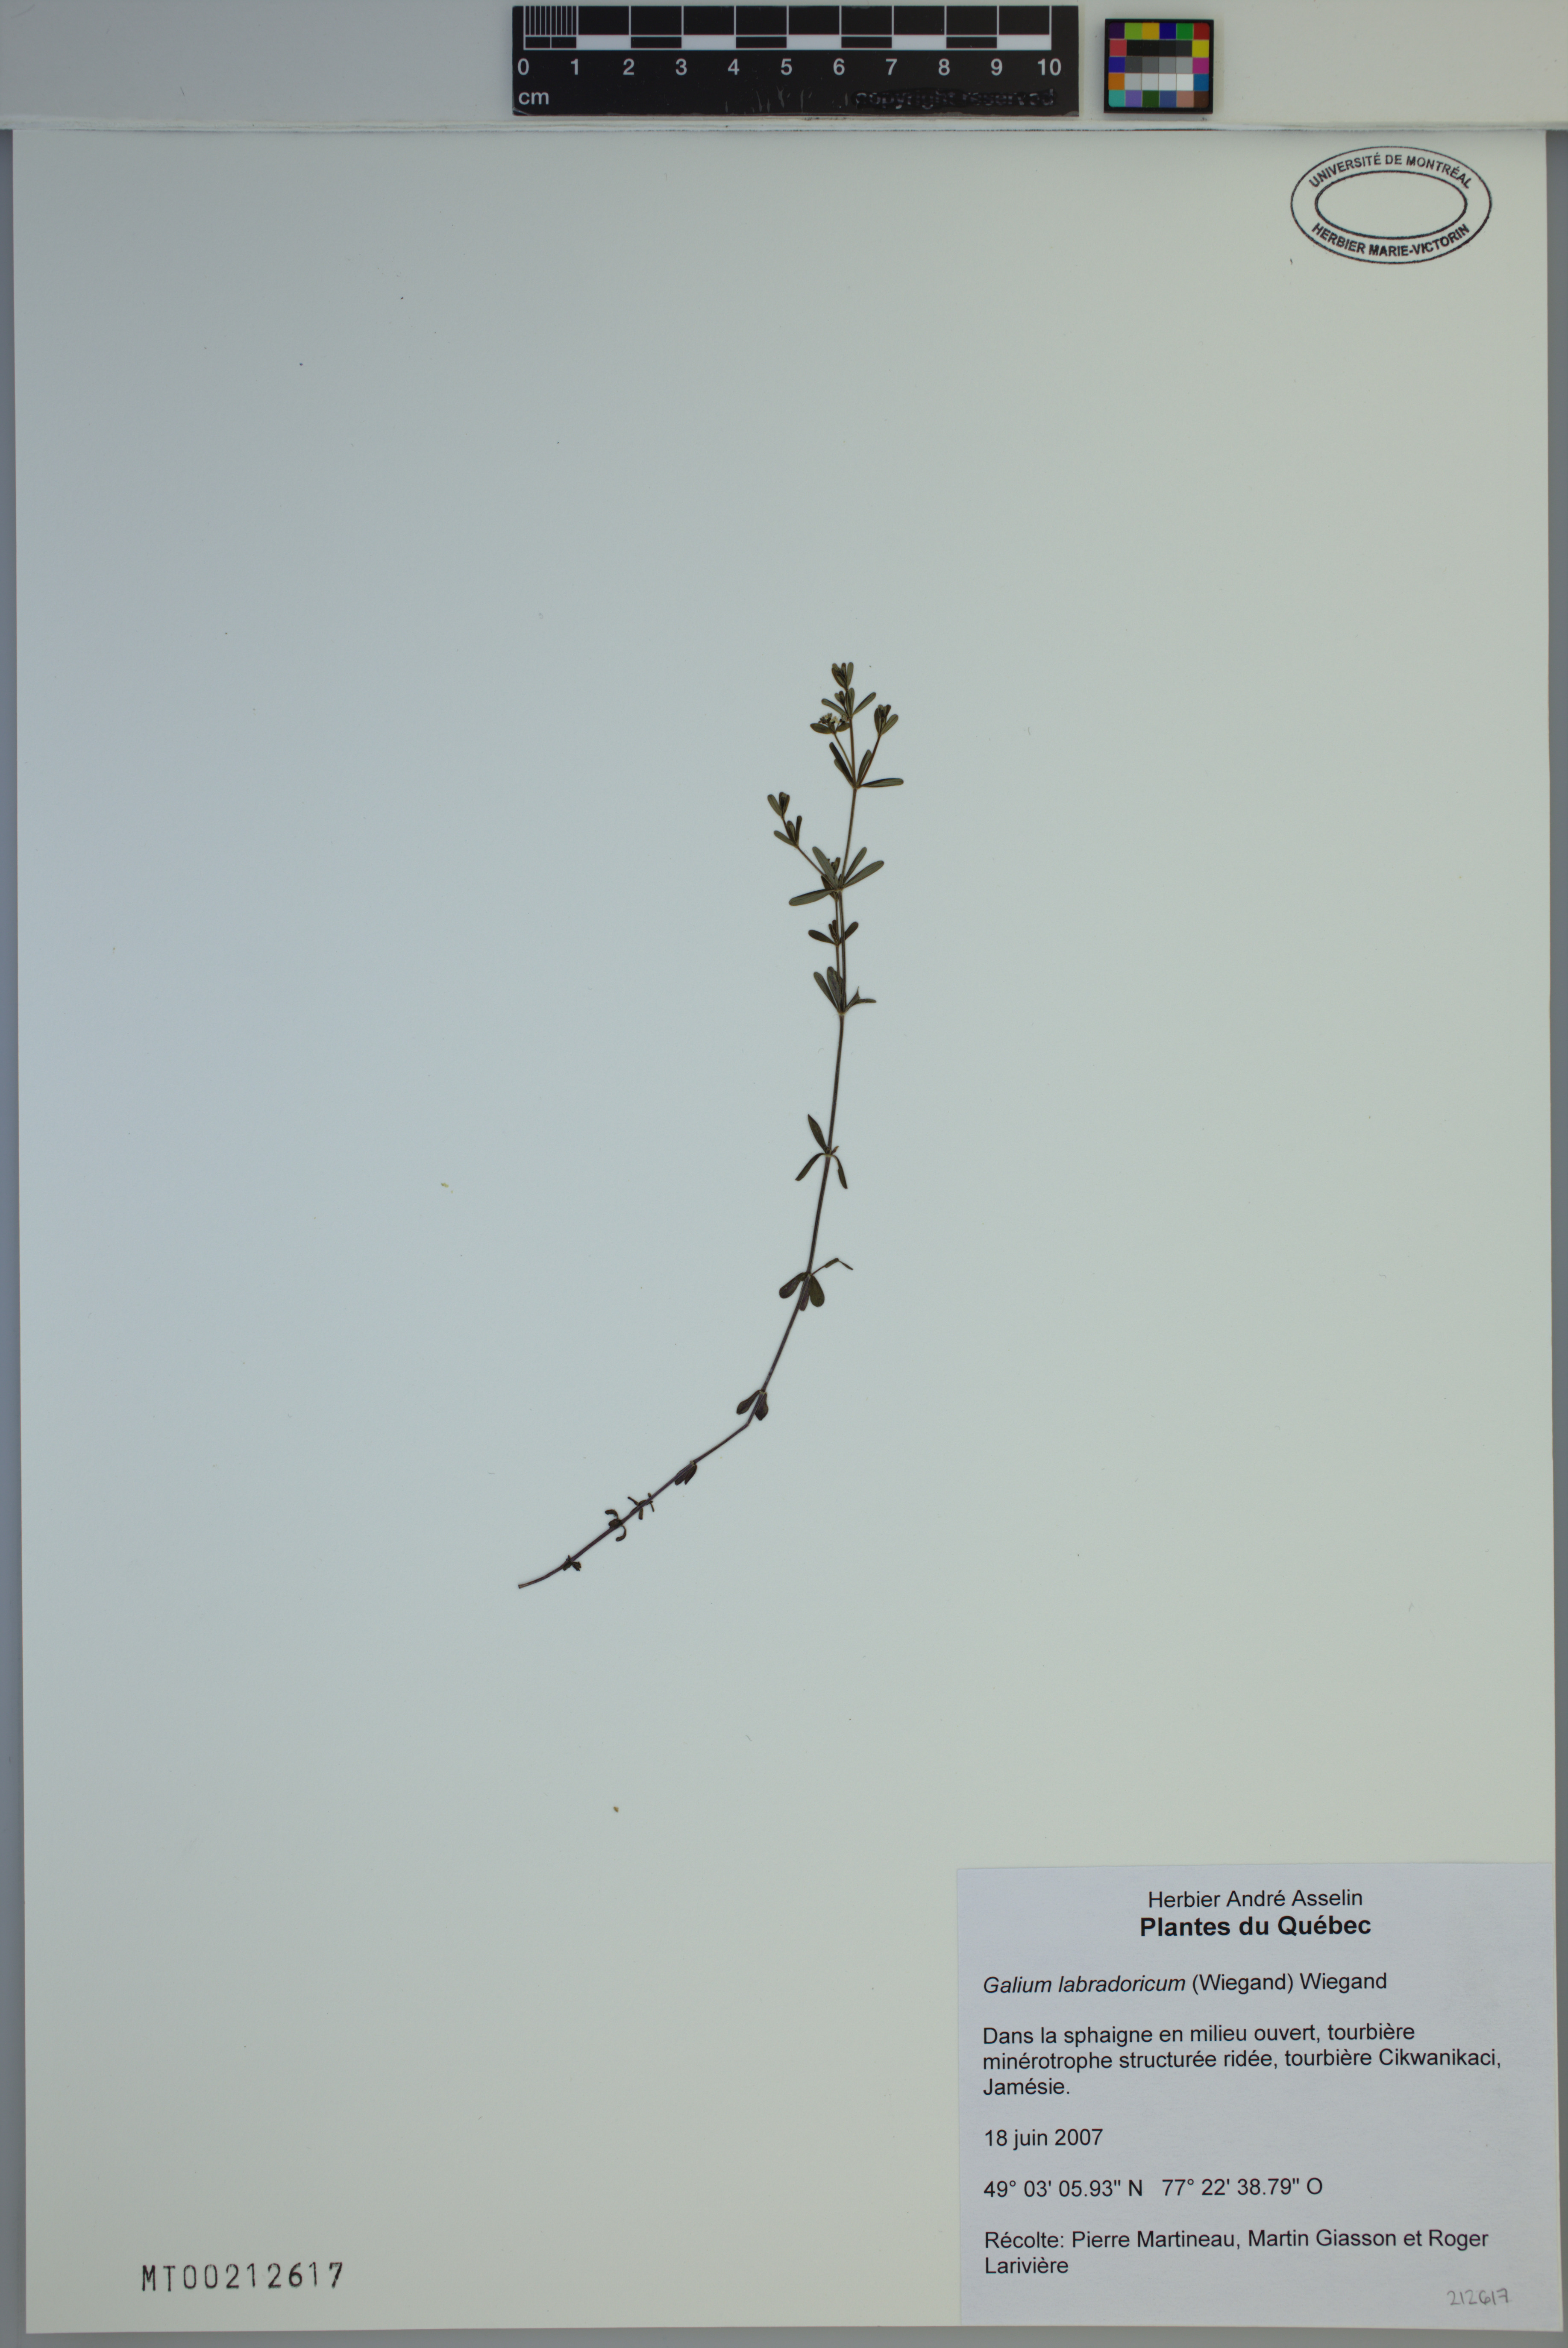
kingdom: Plantae
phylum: Tracheophyta
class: Magnoliopsida
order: Gentianales
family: Rubiaceae
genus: Galium
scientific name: Galium labradoricum
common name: Labrador bedstraw
